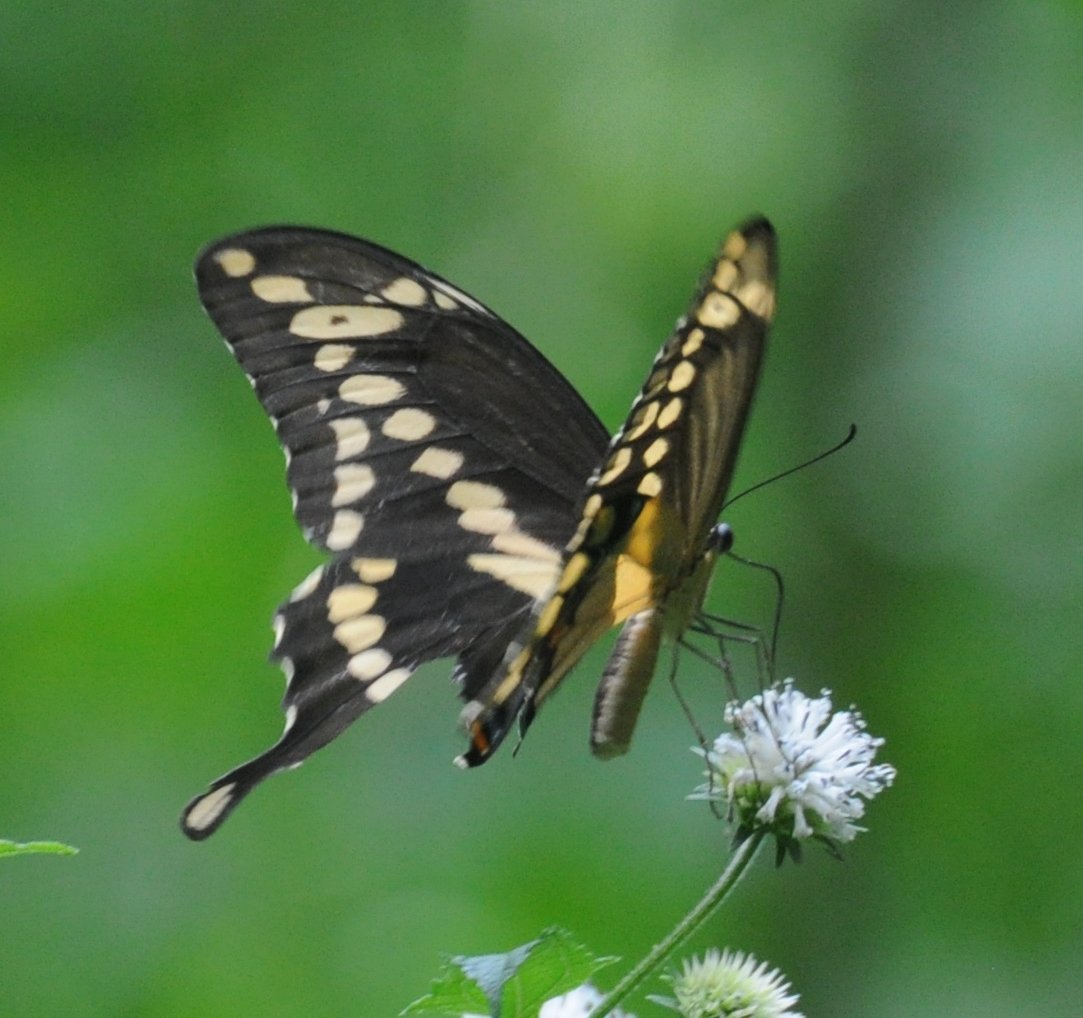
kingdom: Animalia
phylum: Arthropoda
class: Insecta
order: Lepidoptera
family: Papilionidae
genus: Papilio
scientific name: Papilio cresphontes
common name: Eastern Giant Swallowtail
